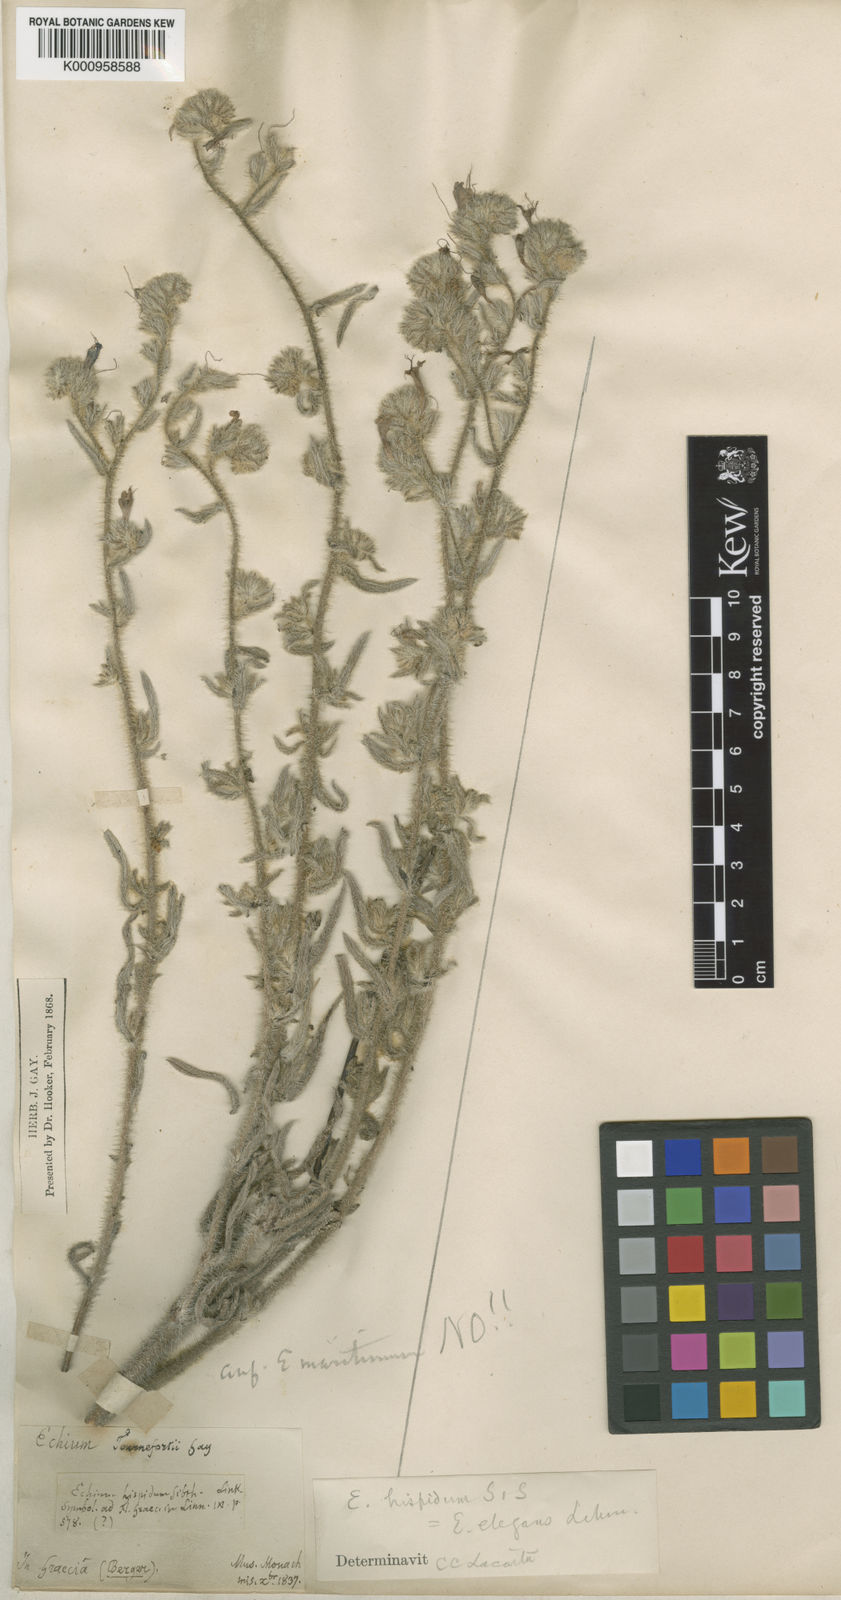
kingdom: Plantae
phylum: Tracheophyta
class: Magnoliopsida
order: Boraginales
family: Boraginaceae
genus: Echium
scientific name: Echium humile
